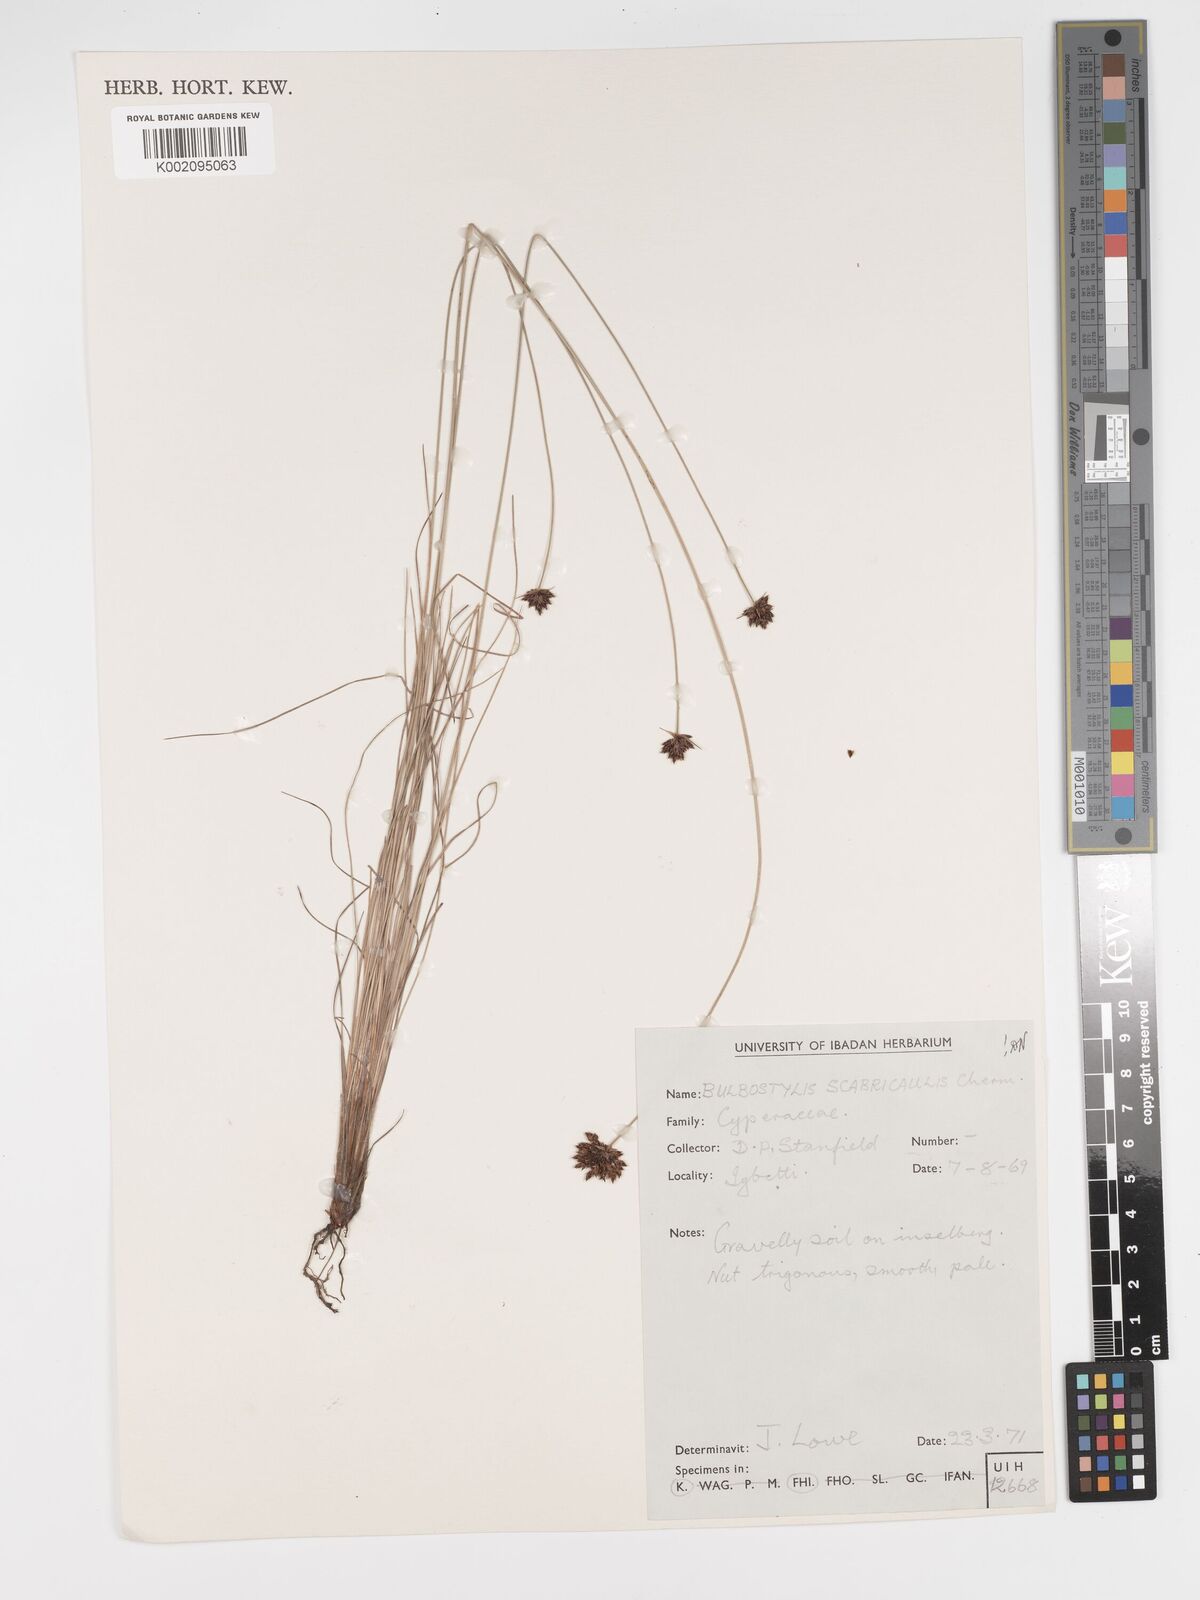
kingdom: Plantae
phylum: Tracheophyta
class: Liliopsida
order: Poales
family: Cyperaceae
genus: Bulbostylis
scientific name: Bulbostylis scabricaulis
